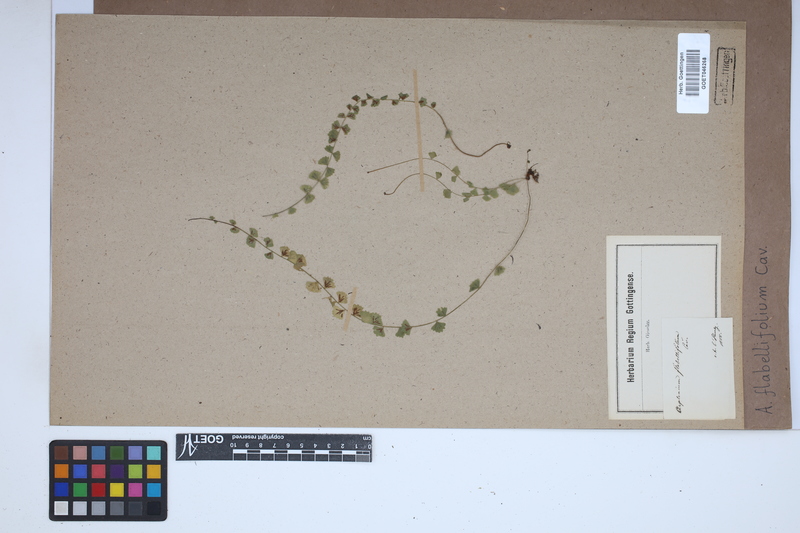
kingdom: Plantae
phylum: Tracheophyta
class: Polypodiopsida
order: Polypodiales
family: Aspleniaceae
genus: Asplenium
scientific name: Asplenium flabellifolium
